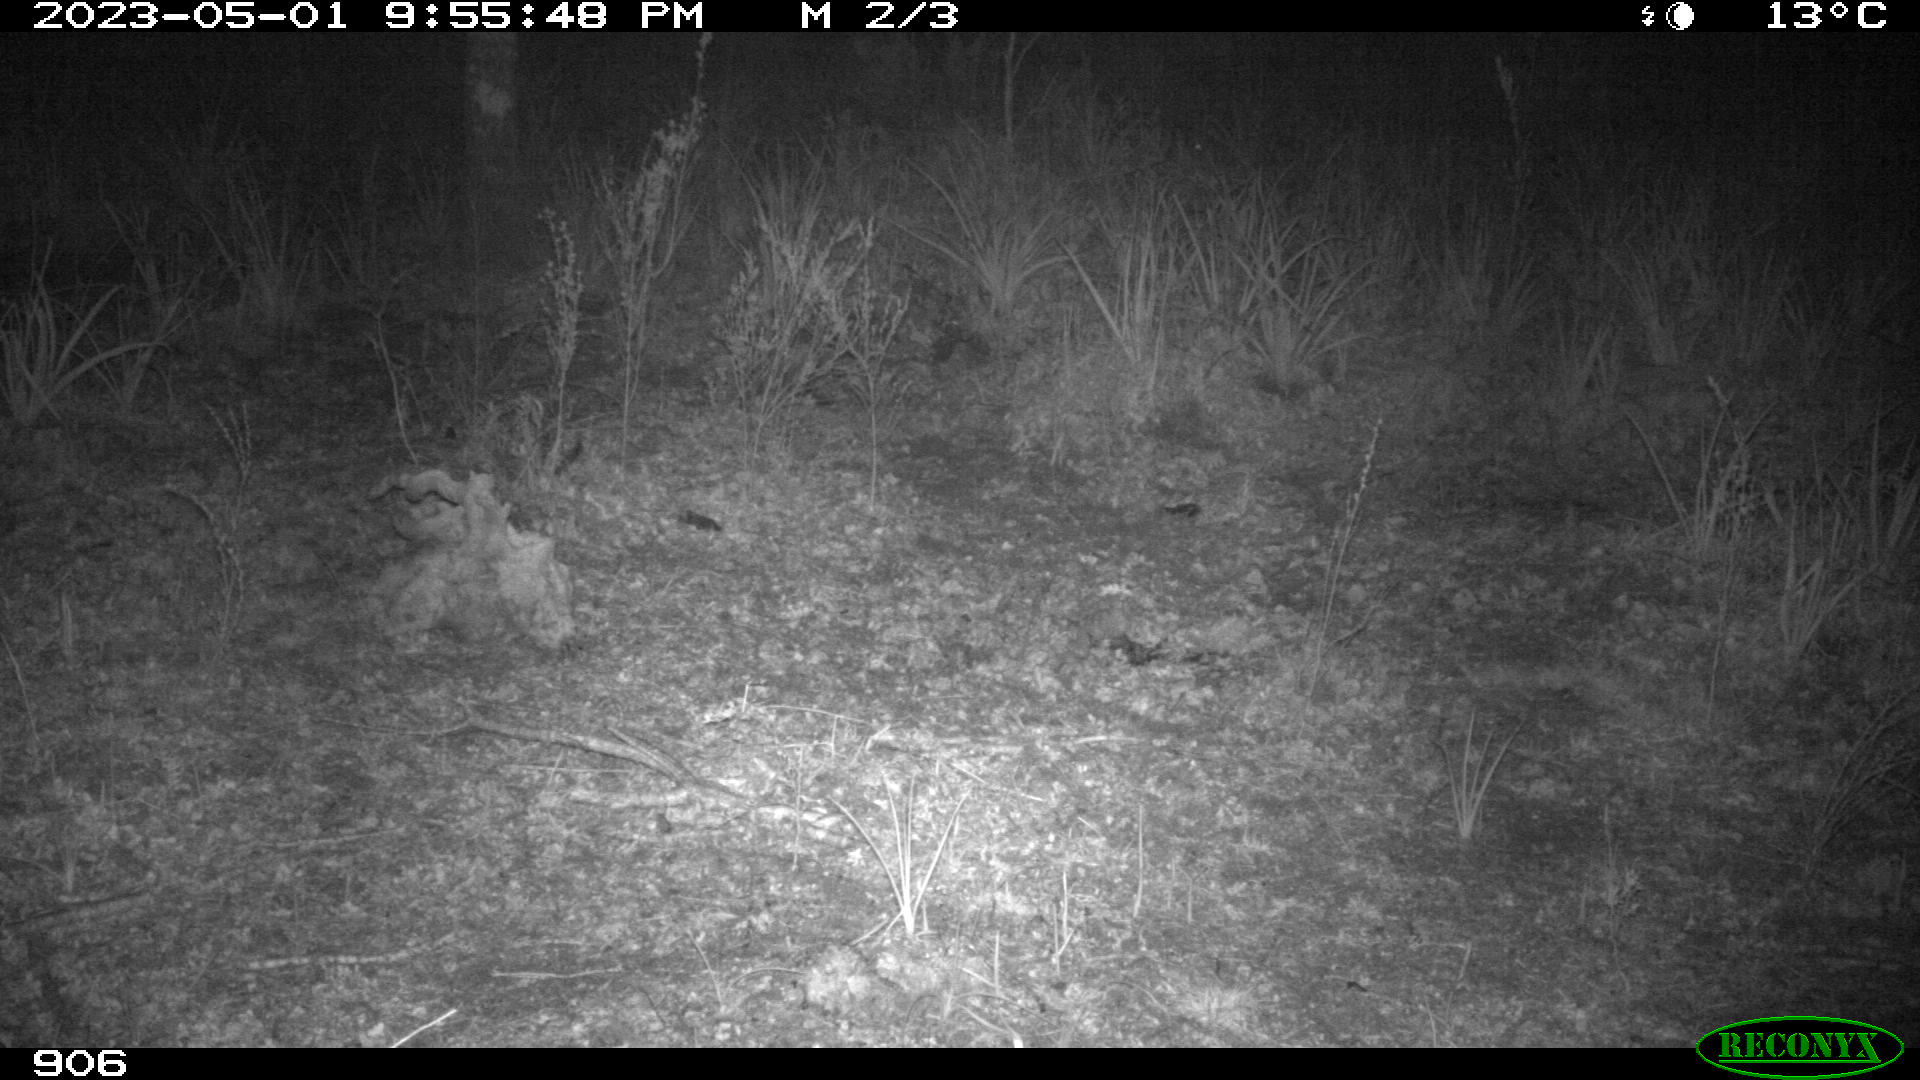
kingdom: Animalia
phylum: Chordata
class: Mammalia
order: Carnivora
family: Mustelidae
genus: Meles
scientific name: Meles meles
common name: Eurasian badger
